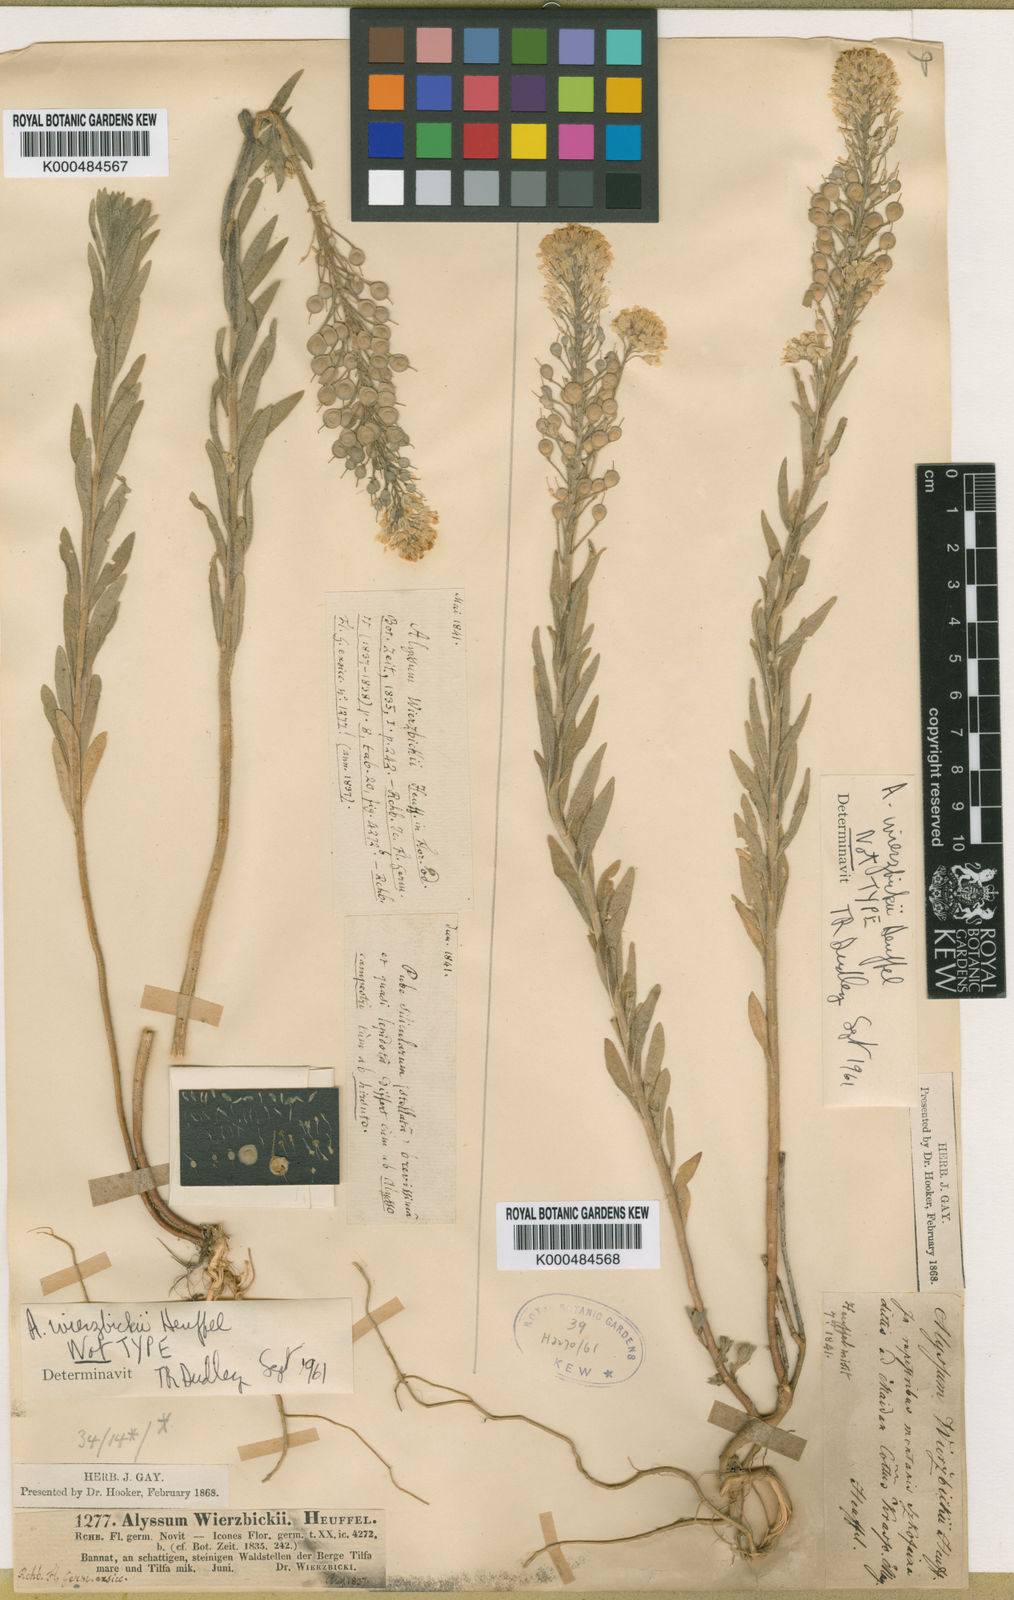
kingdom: Plantae
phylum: Tracheophyta
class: Magnoliopsida
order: Brassicales
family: Brassicaceae
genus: Alyssum
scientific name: Alyssum wierzbickii
